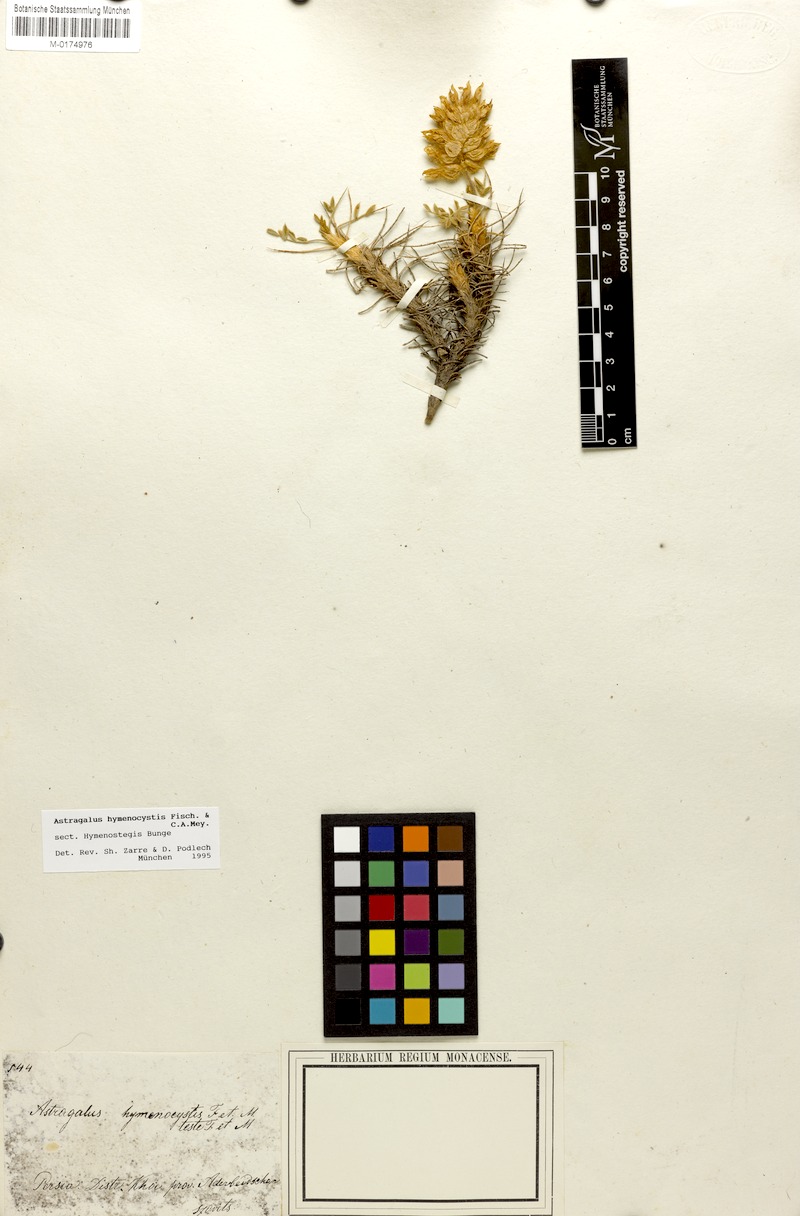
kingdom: Plantae
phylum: Tracheophyta
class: Magnoliopsida
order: Fabales
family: Fabaceae
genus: Astragalus
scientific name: Astragalus hymenocystis
